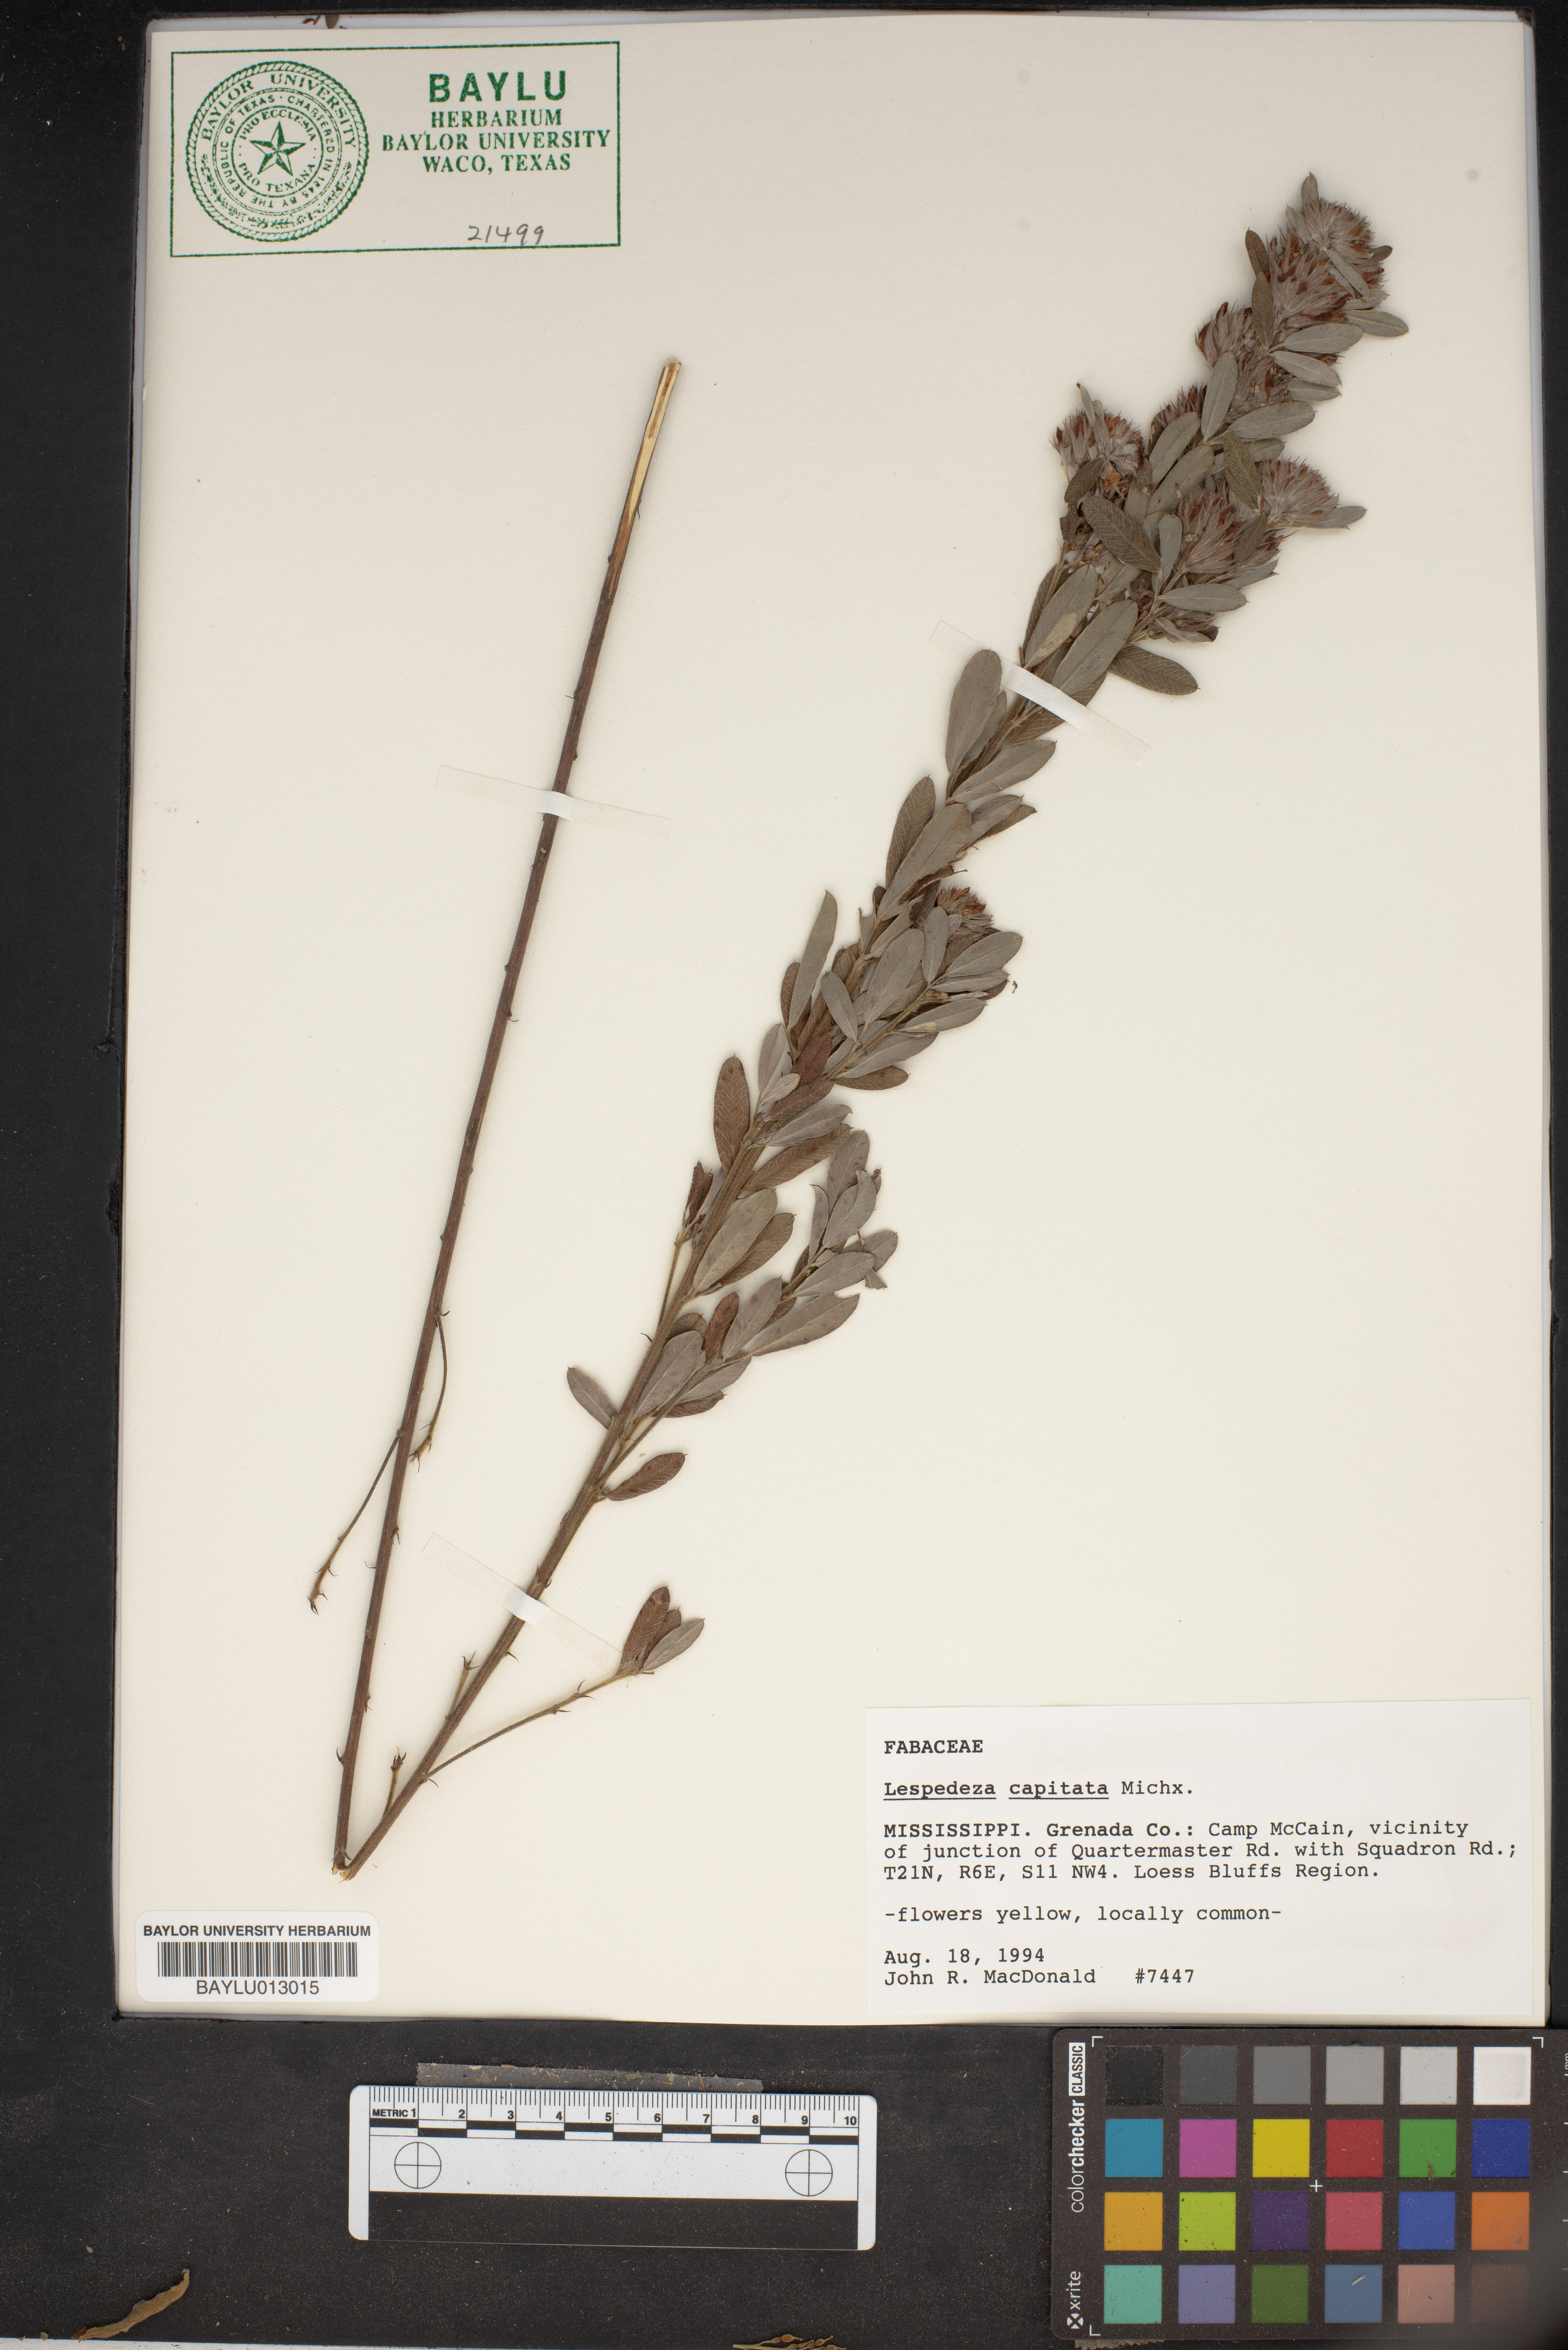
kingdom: Plantae
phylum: Tracheophyta
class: Magnoliopsida
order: Fabales
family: Fabaceae
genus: Lespedeza
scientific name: Lespedeza capitata
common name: Dusty clover
